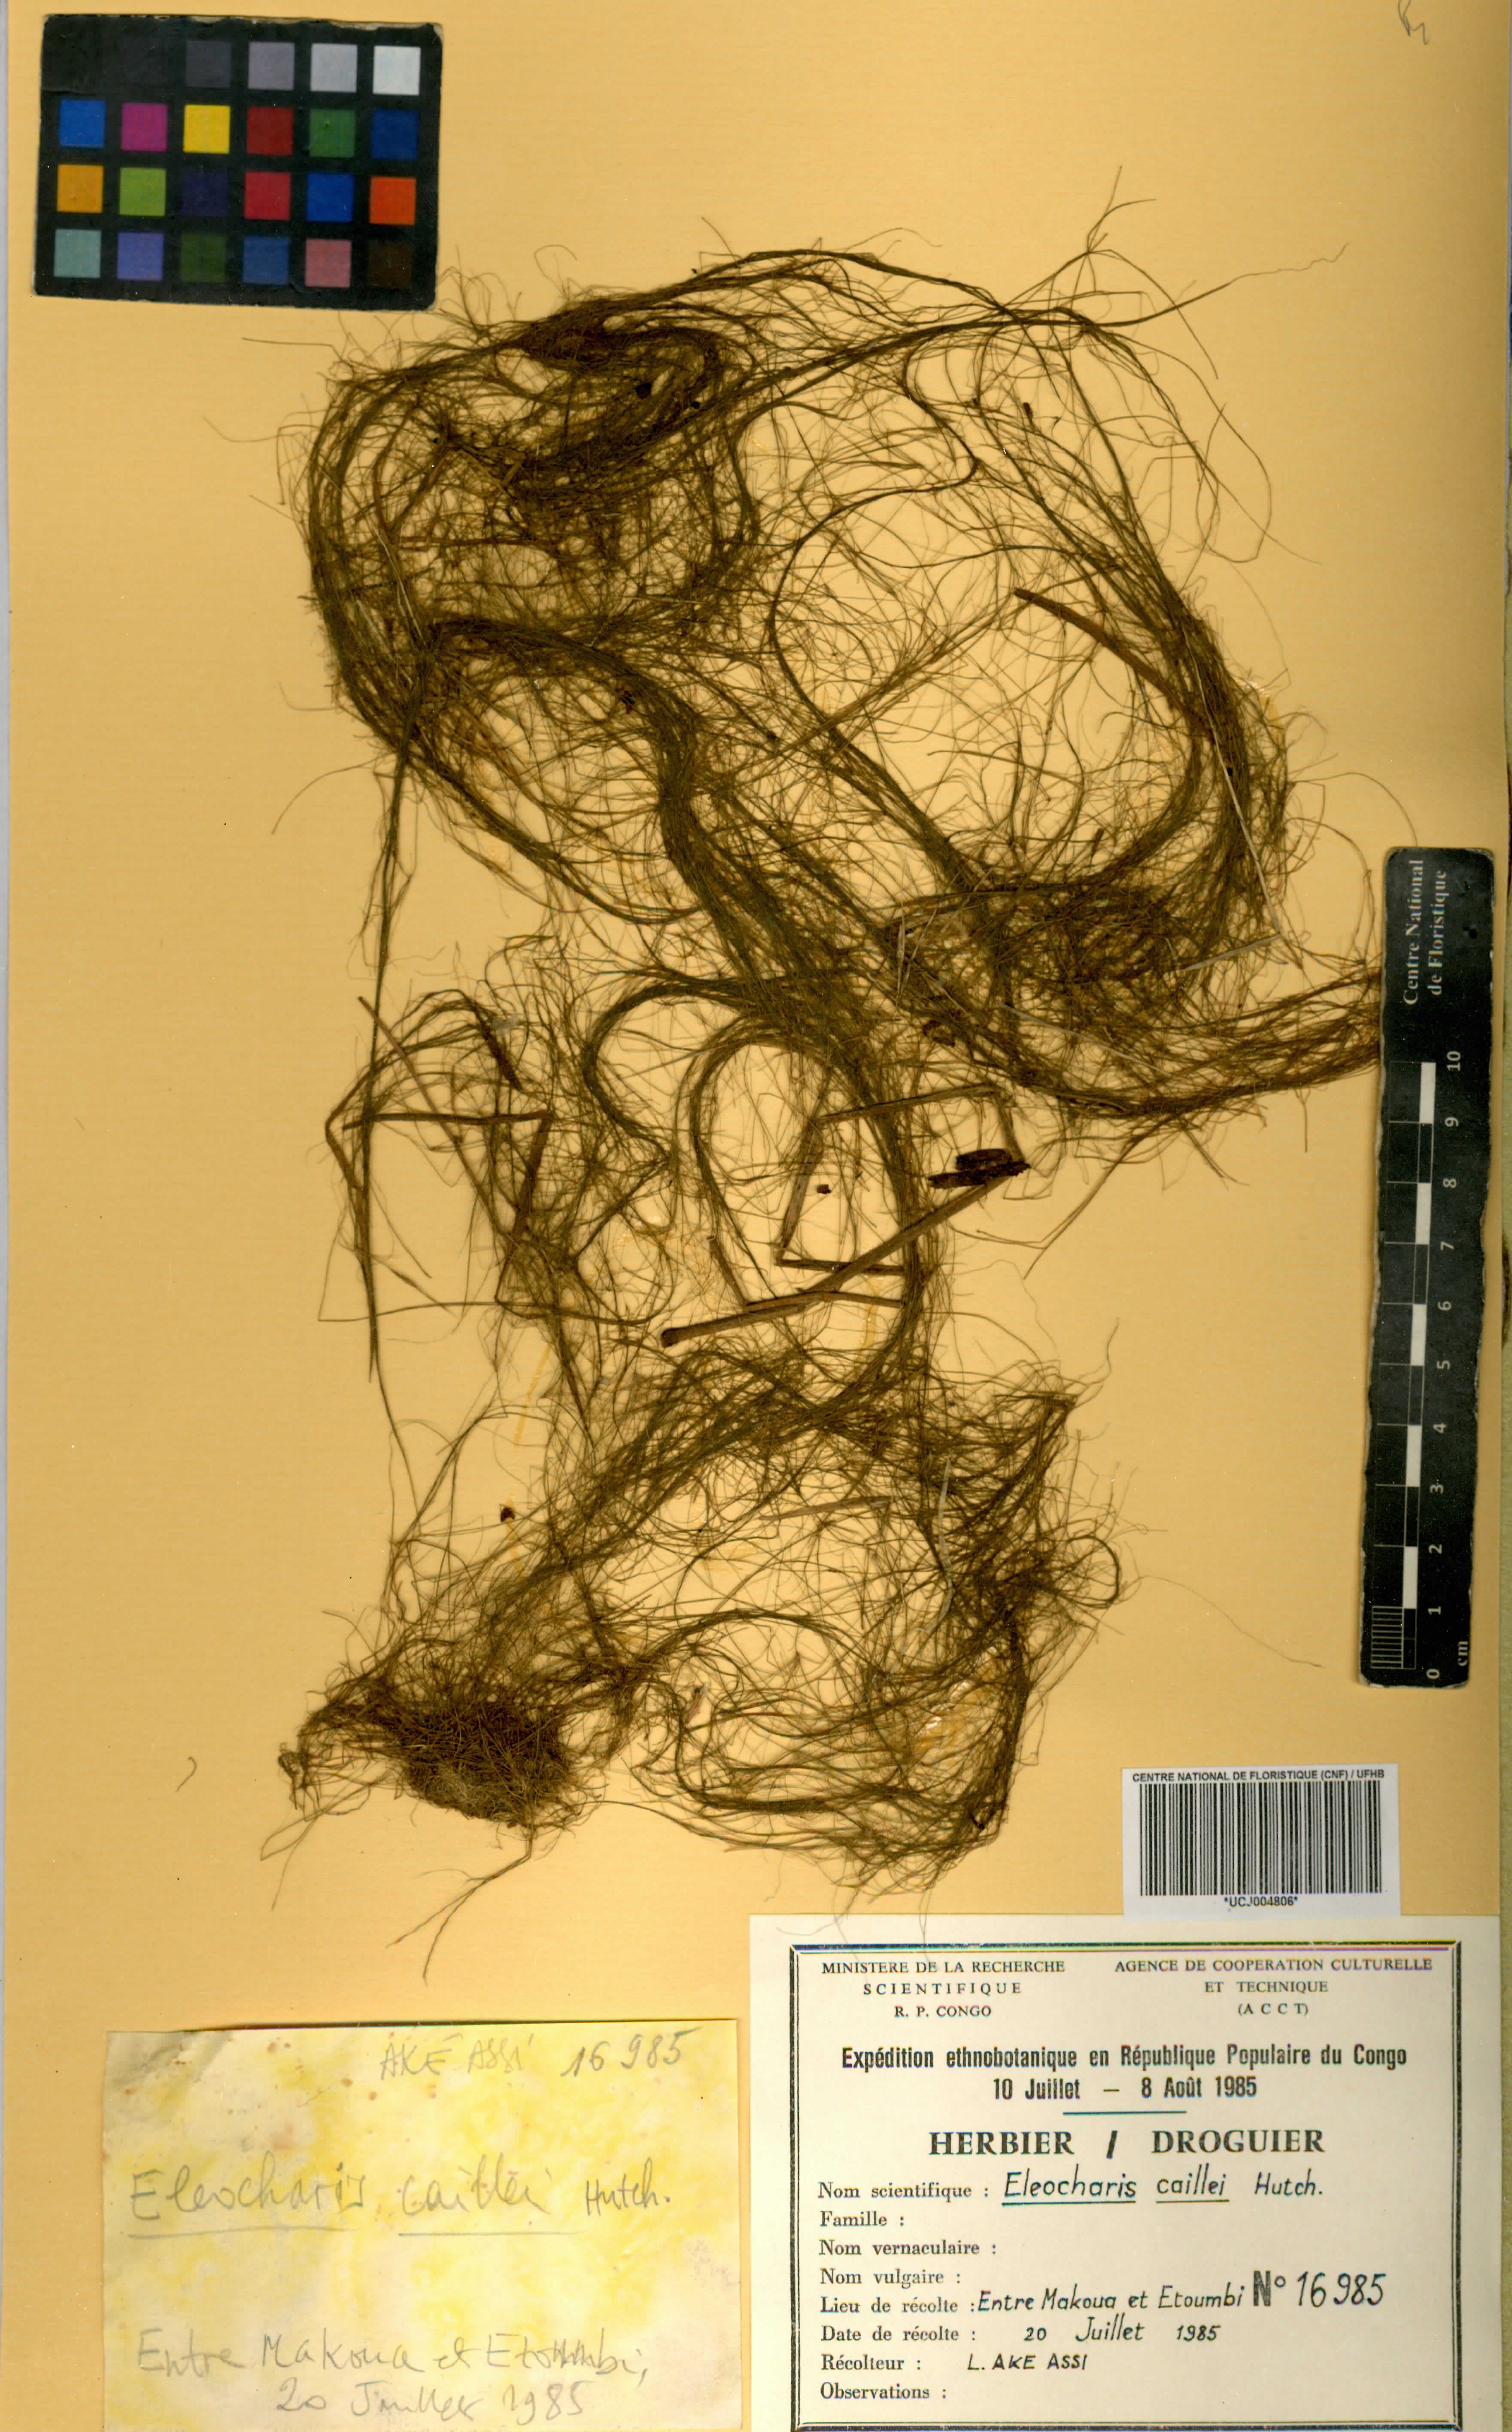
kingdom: Plantae
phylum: Tracheophyta
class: Liliopsida
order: Poales
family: Cyperaceae
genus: Eleocharis
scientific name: Eleocharis caillei
